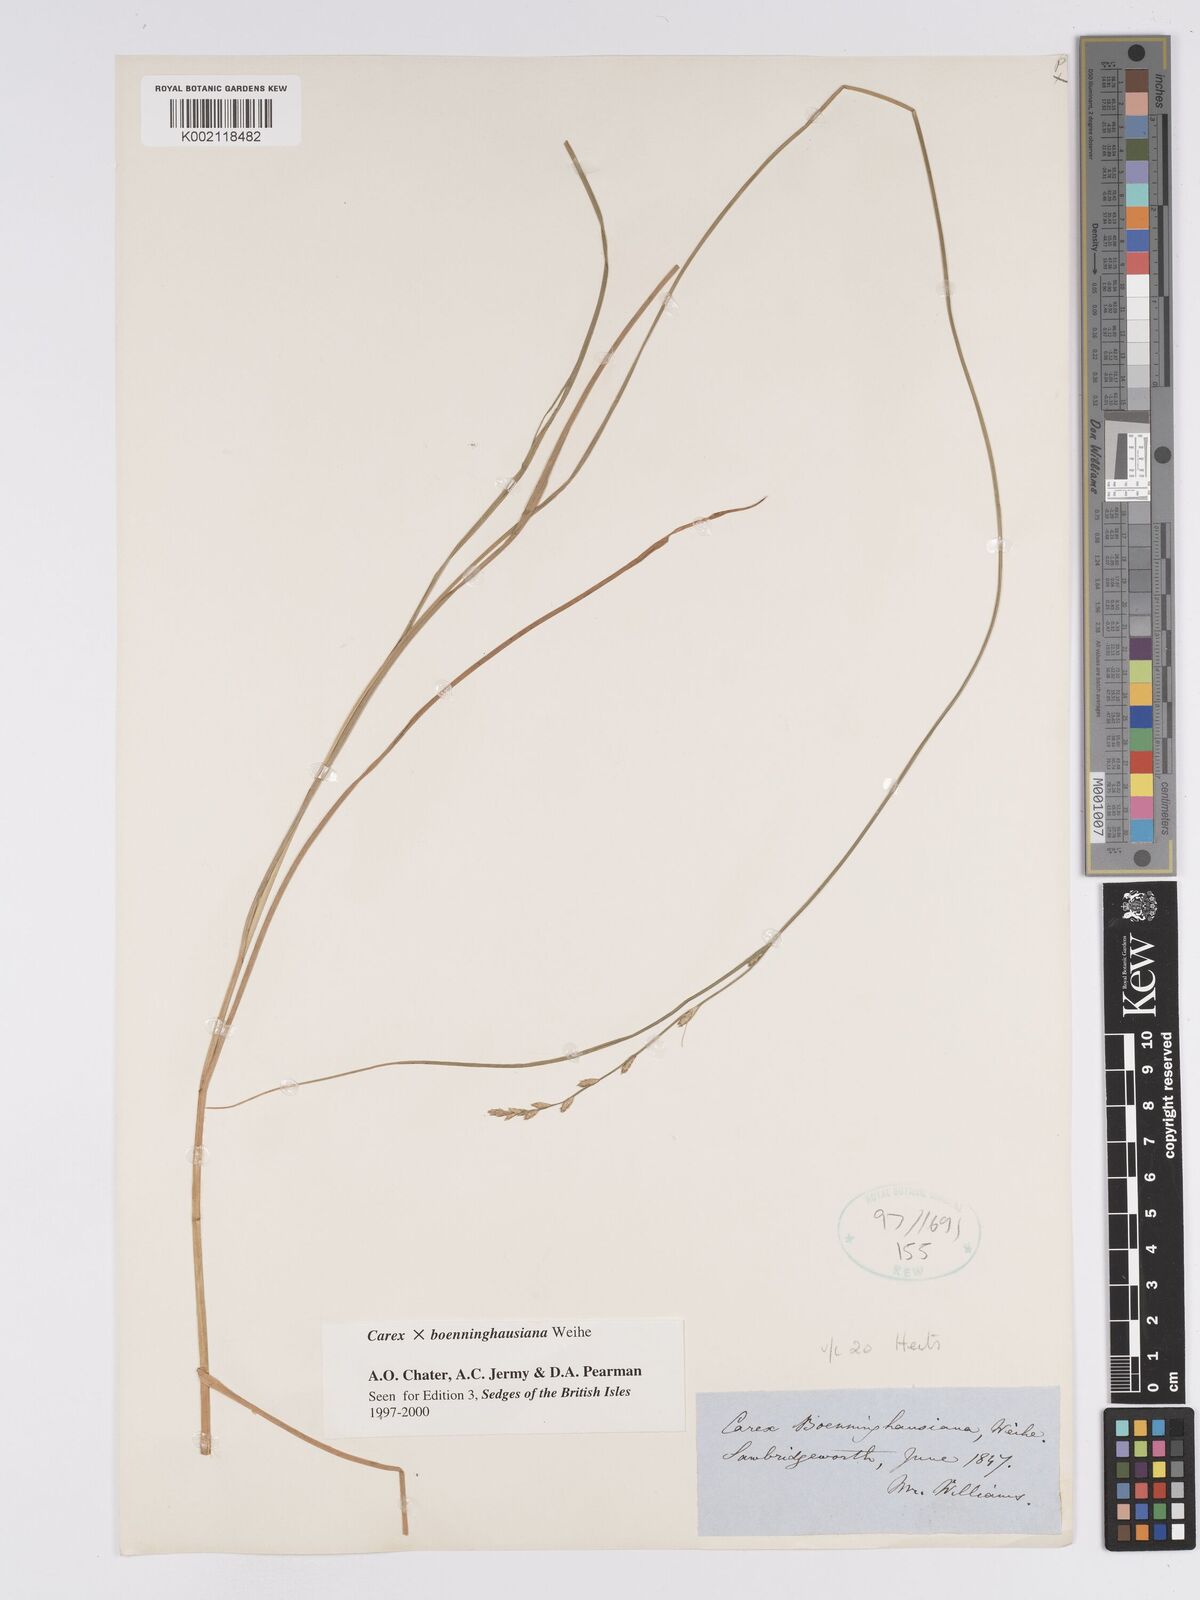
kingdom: Plantae
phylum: Tracheophyta
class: Liliopsida
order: Poales
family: Cyperaceae
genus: Carex
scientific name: Carex boenninghausiana
